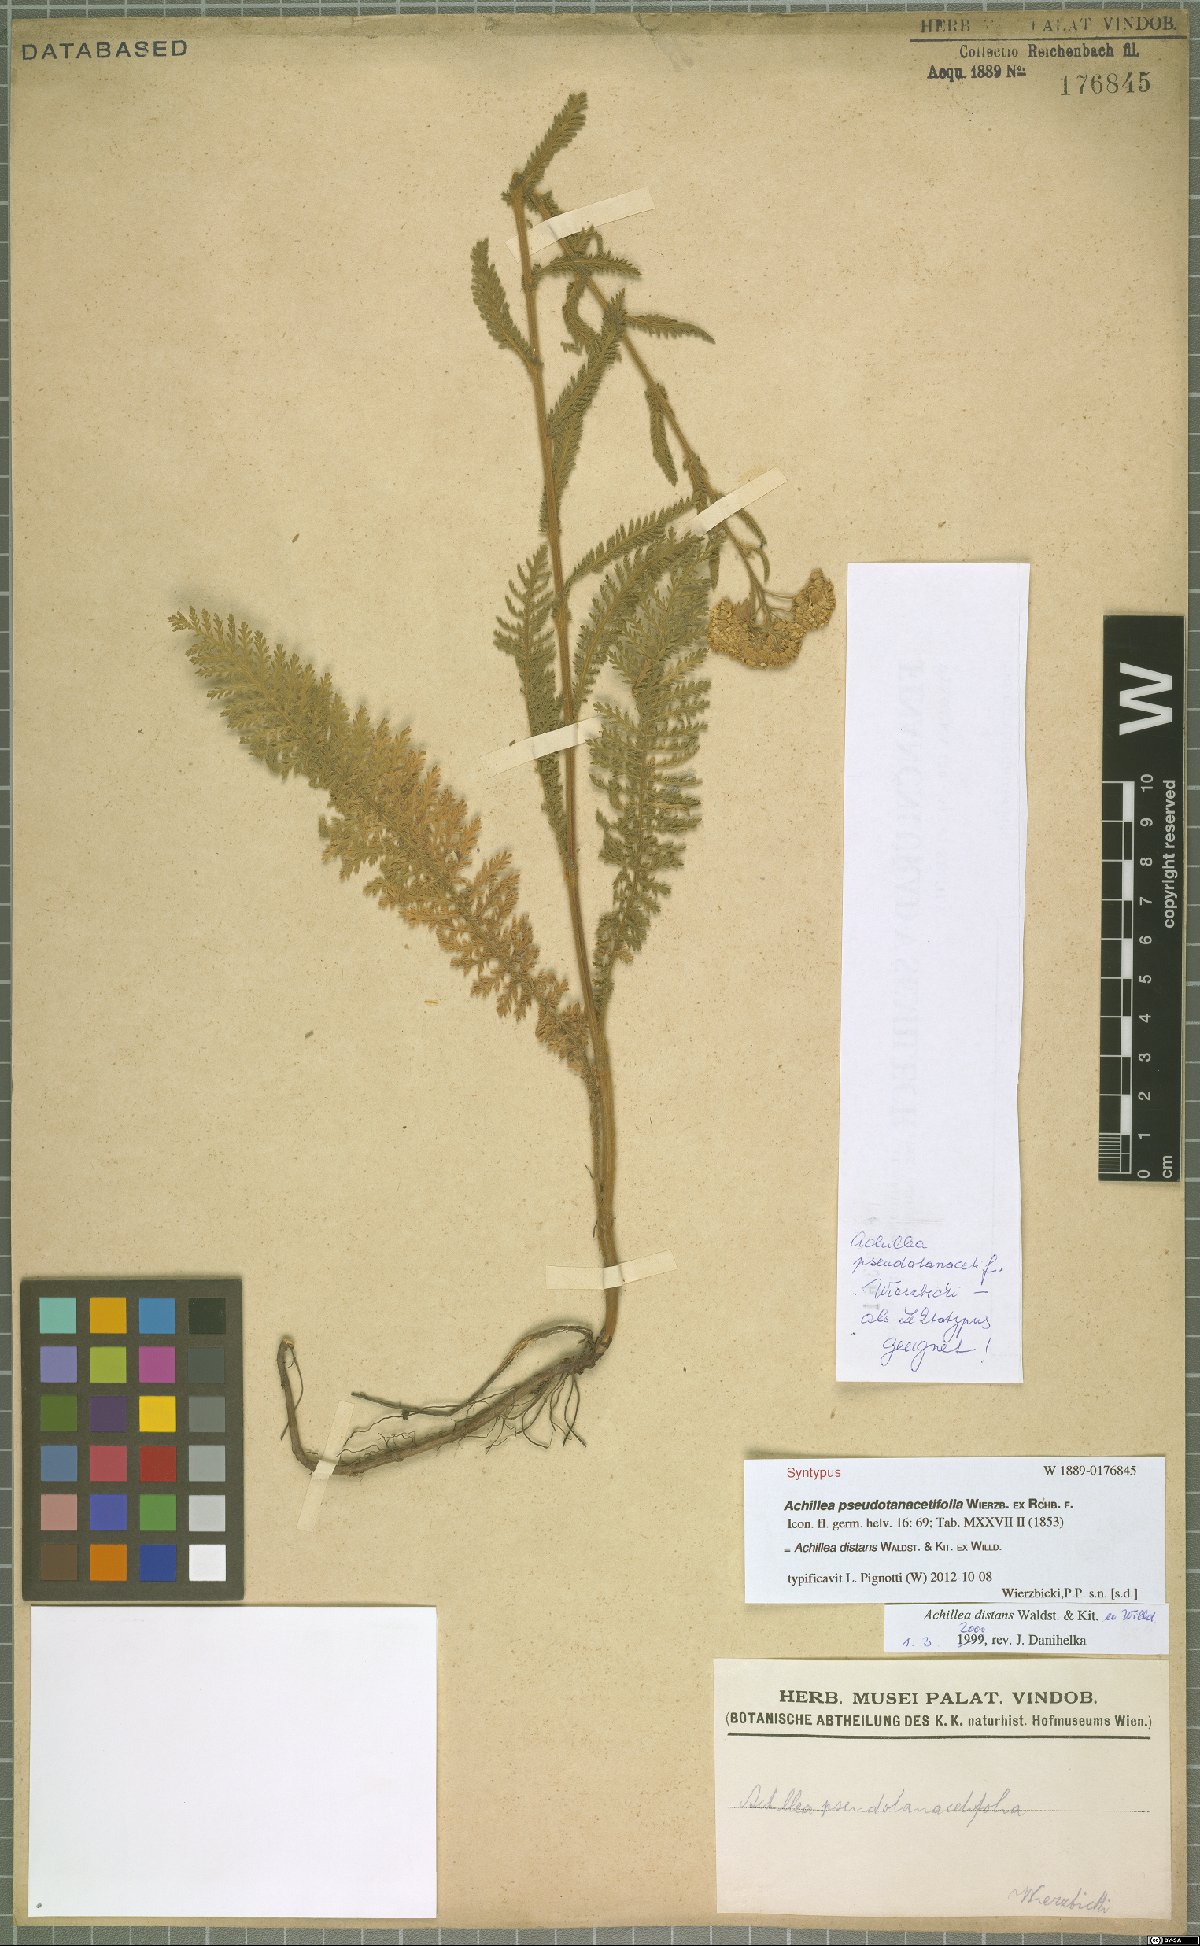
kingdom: Plantae
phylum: Tracheophyta
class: Magnoliopsida
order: Asterales
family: Asteraceae
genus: Achillea
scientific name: Achillea distans
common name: Tall yarrow
